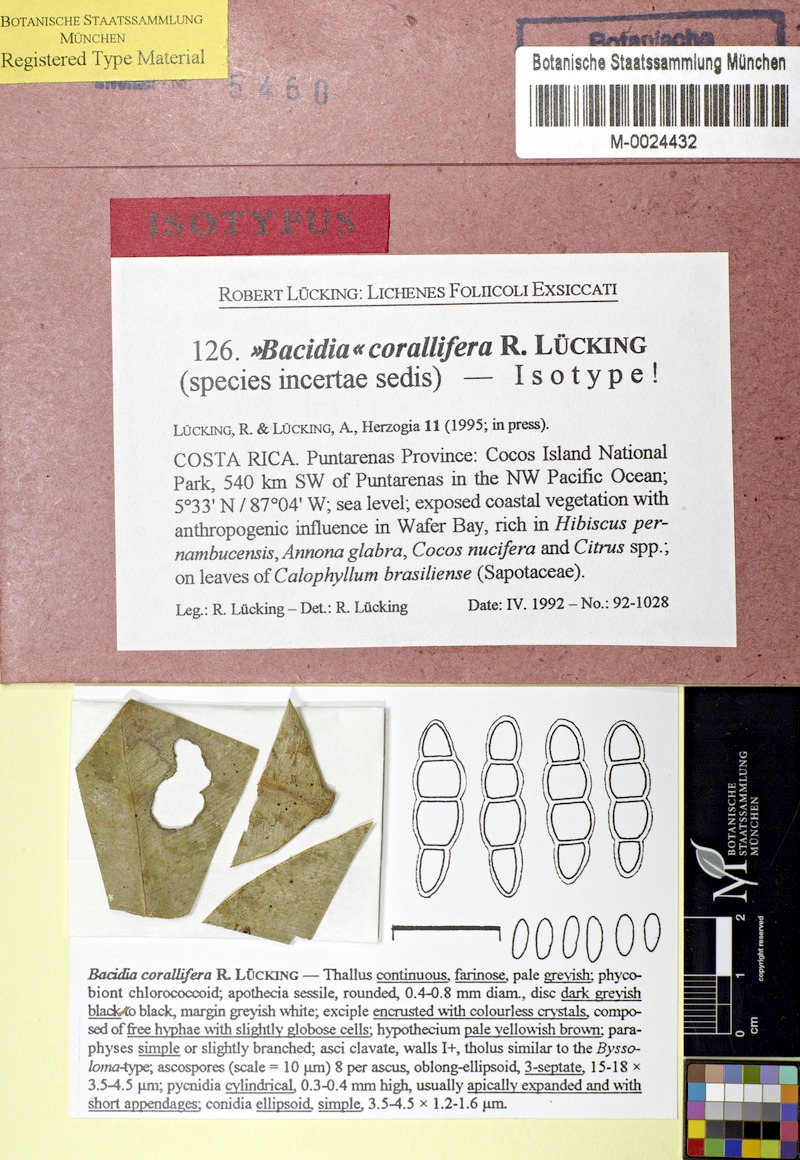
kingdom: Fungi
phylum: Ascomycota
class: Lecanoromycetes
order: Lecanorales
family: Byssolomataceae
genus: Eugeniella
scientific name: Eugeniella corallifera
